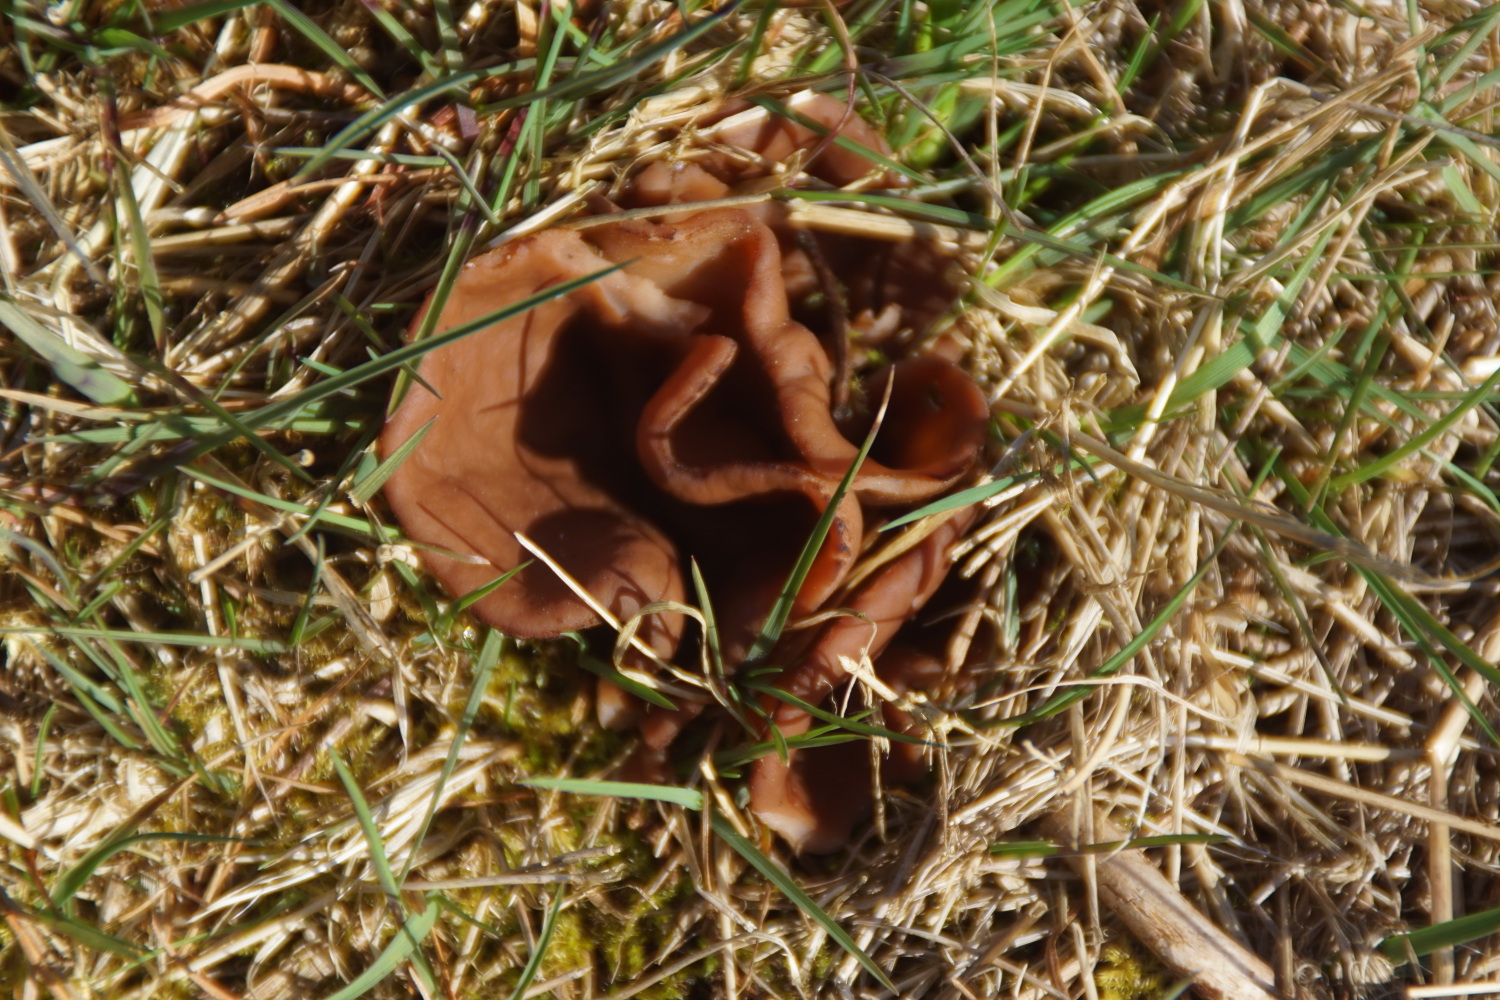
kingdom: Fungi
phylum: Ascomycota
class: Pezizomycetes
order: Pezizales
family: Discinaceae
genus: Discina
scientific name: Discina ancilis
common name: udbredt stenmorkel
